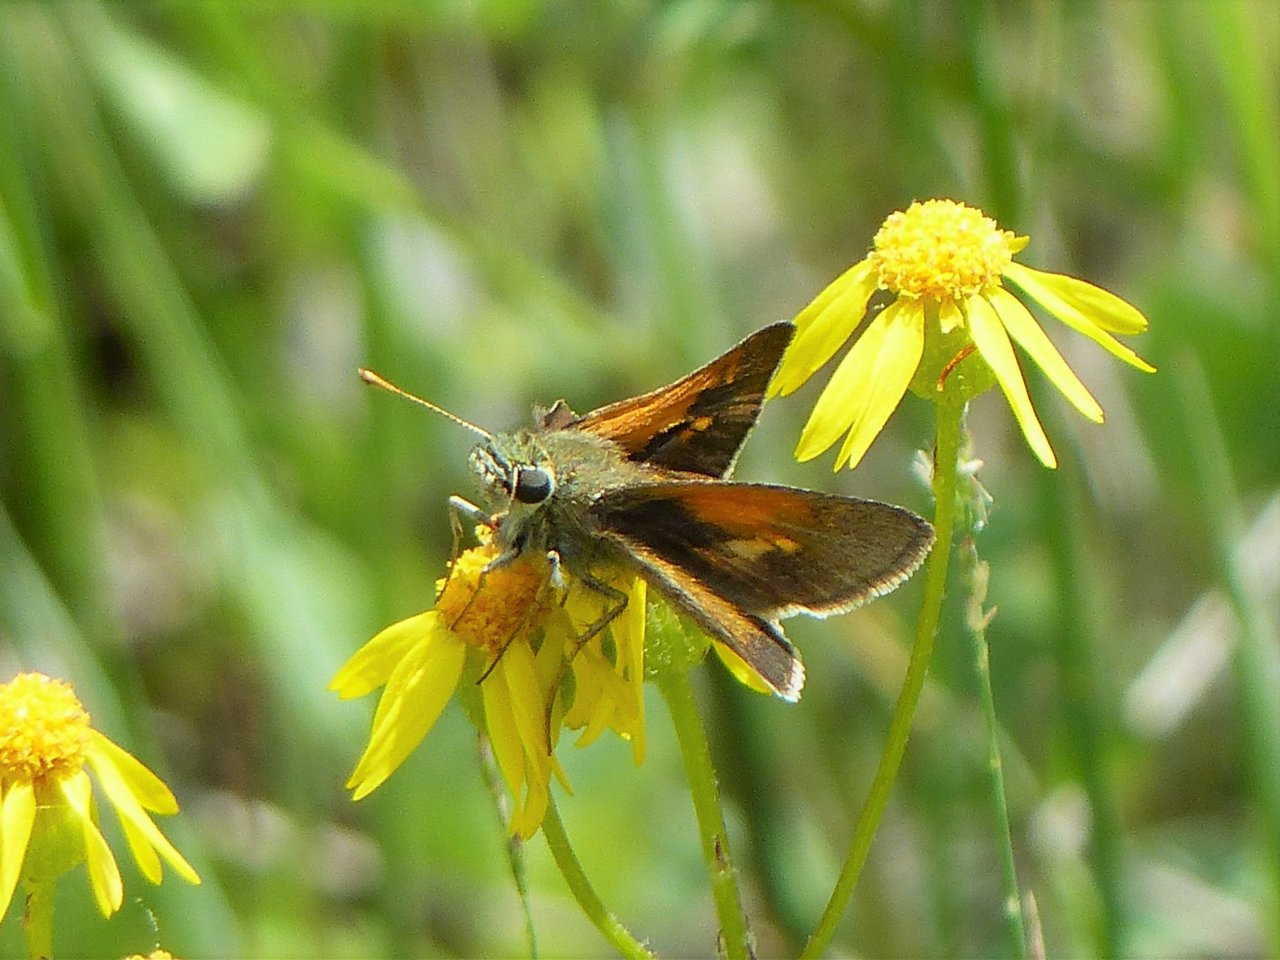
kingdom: Animalia
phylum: Arthropoda
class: Insecta
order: Lepidoptera
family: Hesperiidae
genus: Polites
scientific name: Polites themistocles
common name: Tawny-edged Skipper
